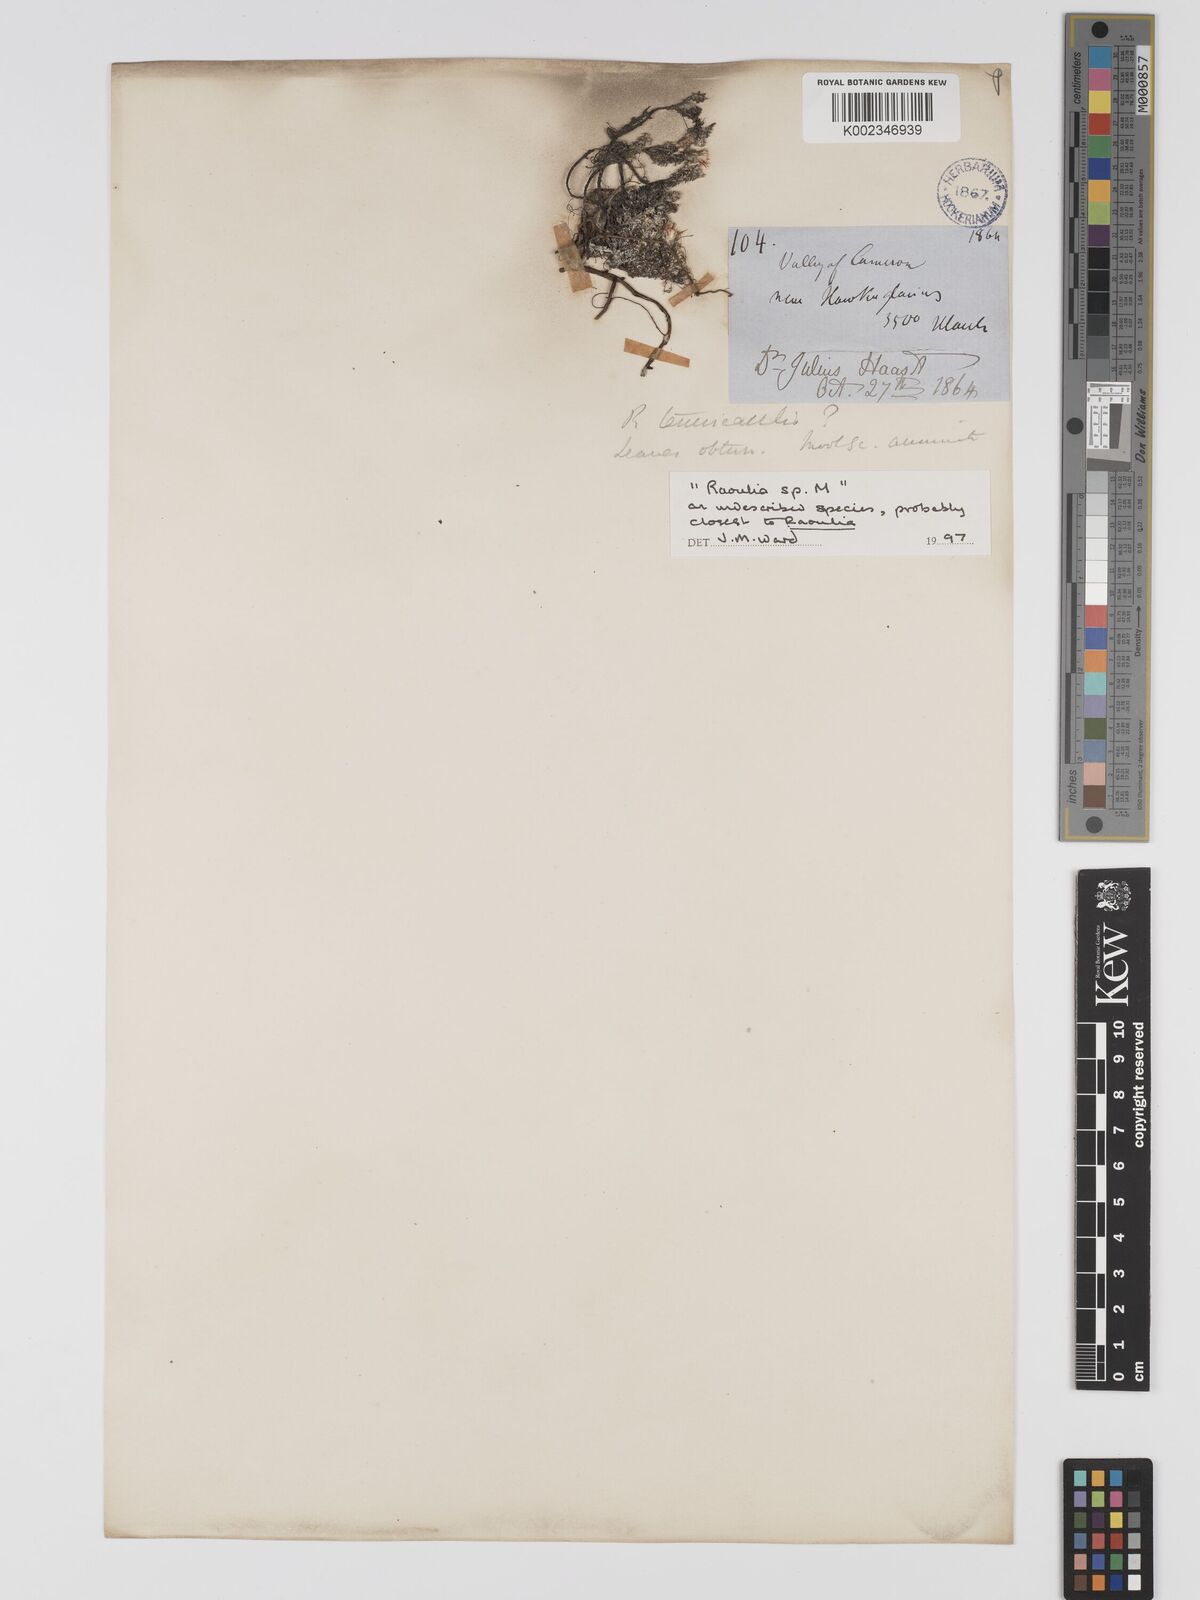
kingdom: Plantae
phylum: Tracheophyta
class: Magnoliopsida
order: Asterales
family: Asteraceae
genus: Raoulia
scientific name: Raoulia
